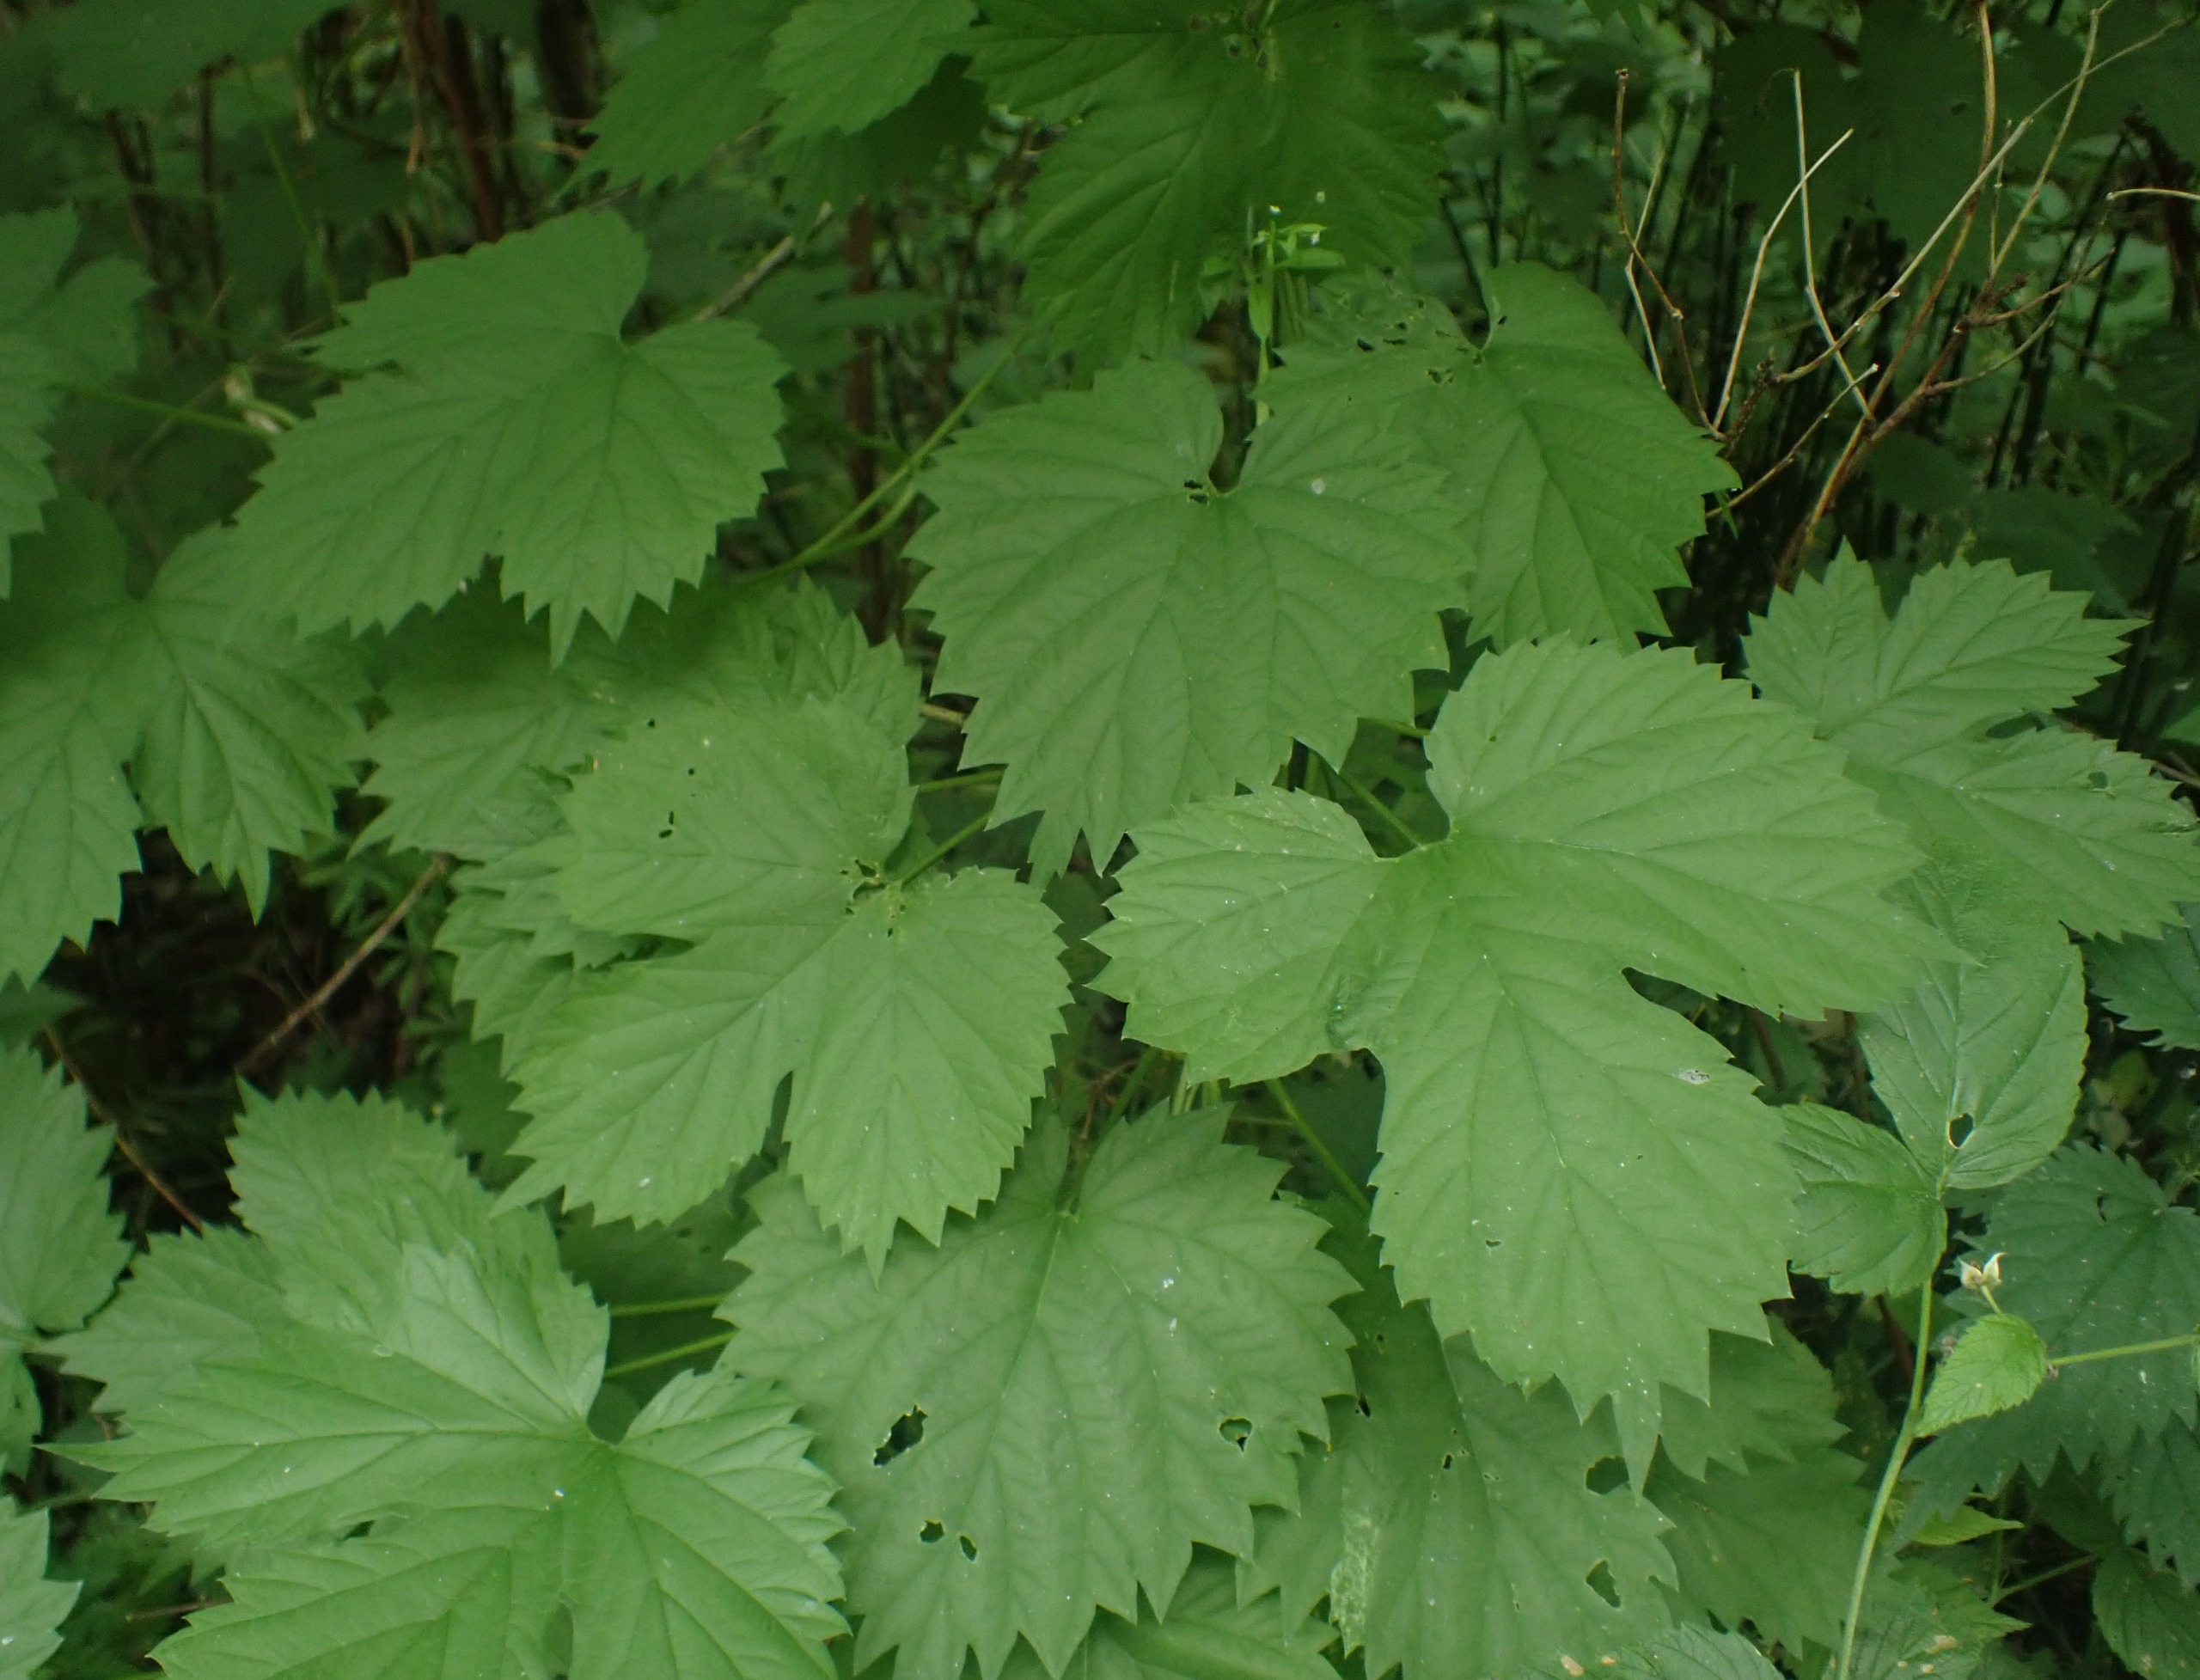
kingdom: Plantae
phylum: Tracheophyta
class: Magnoliopsida
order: Rosales
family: Cannabaceae
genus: Humulus
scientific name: Humulus lupulus
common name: Humle
